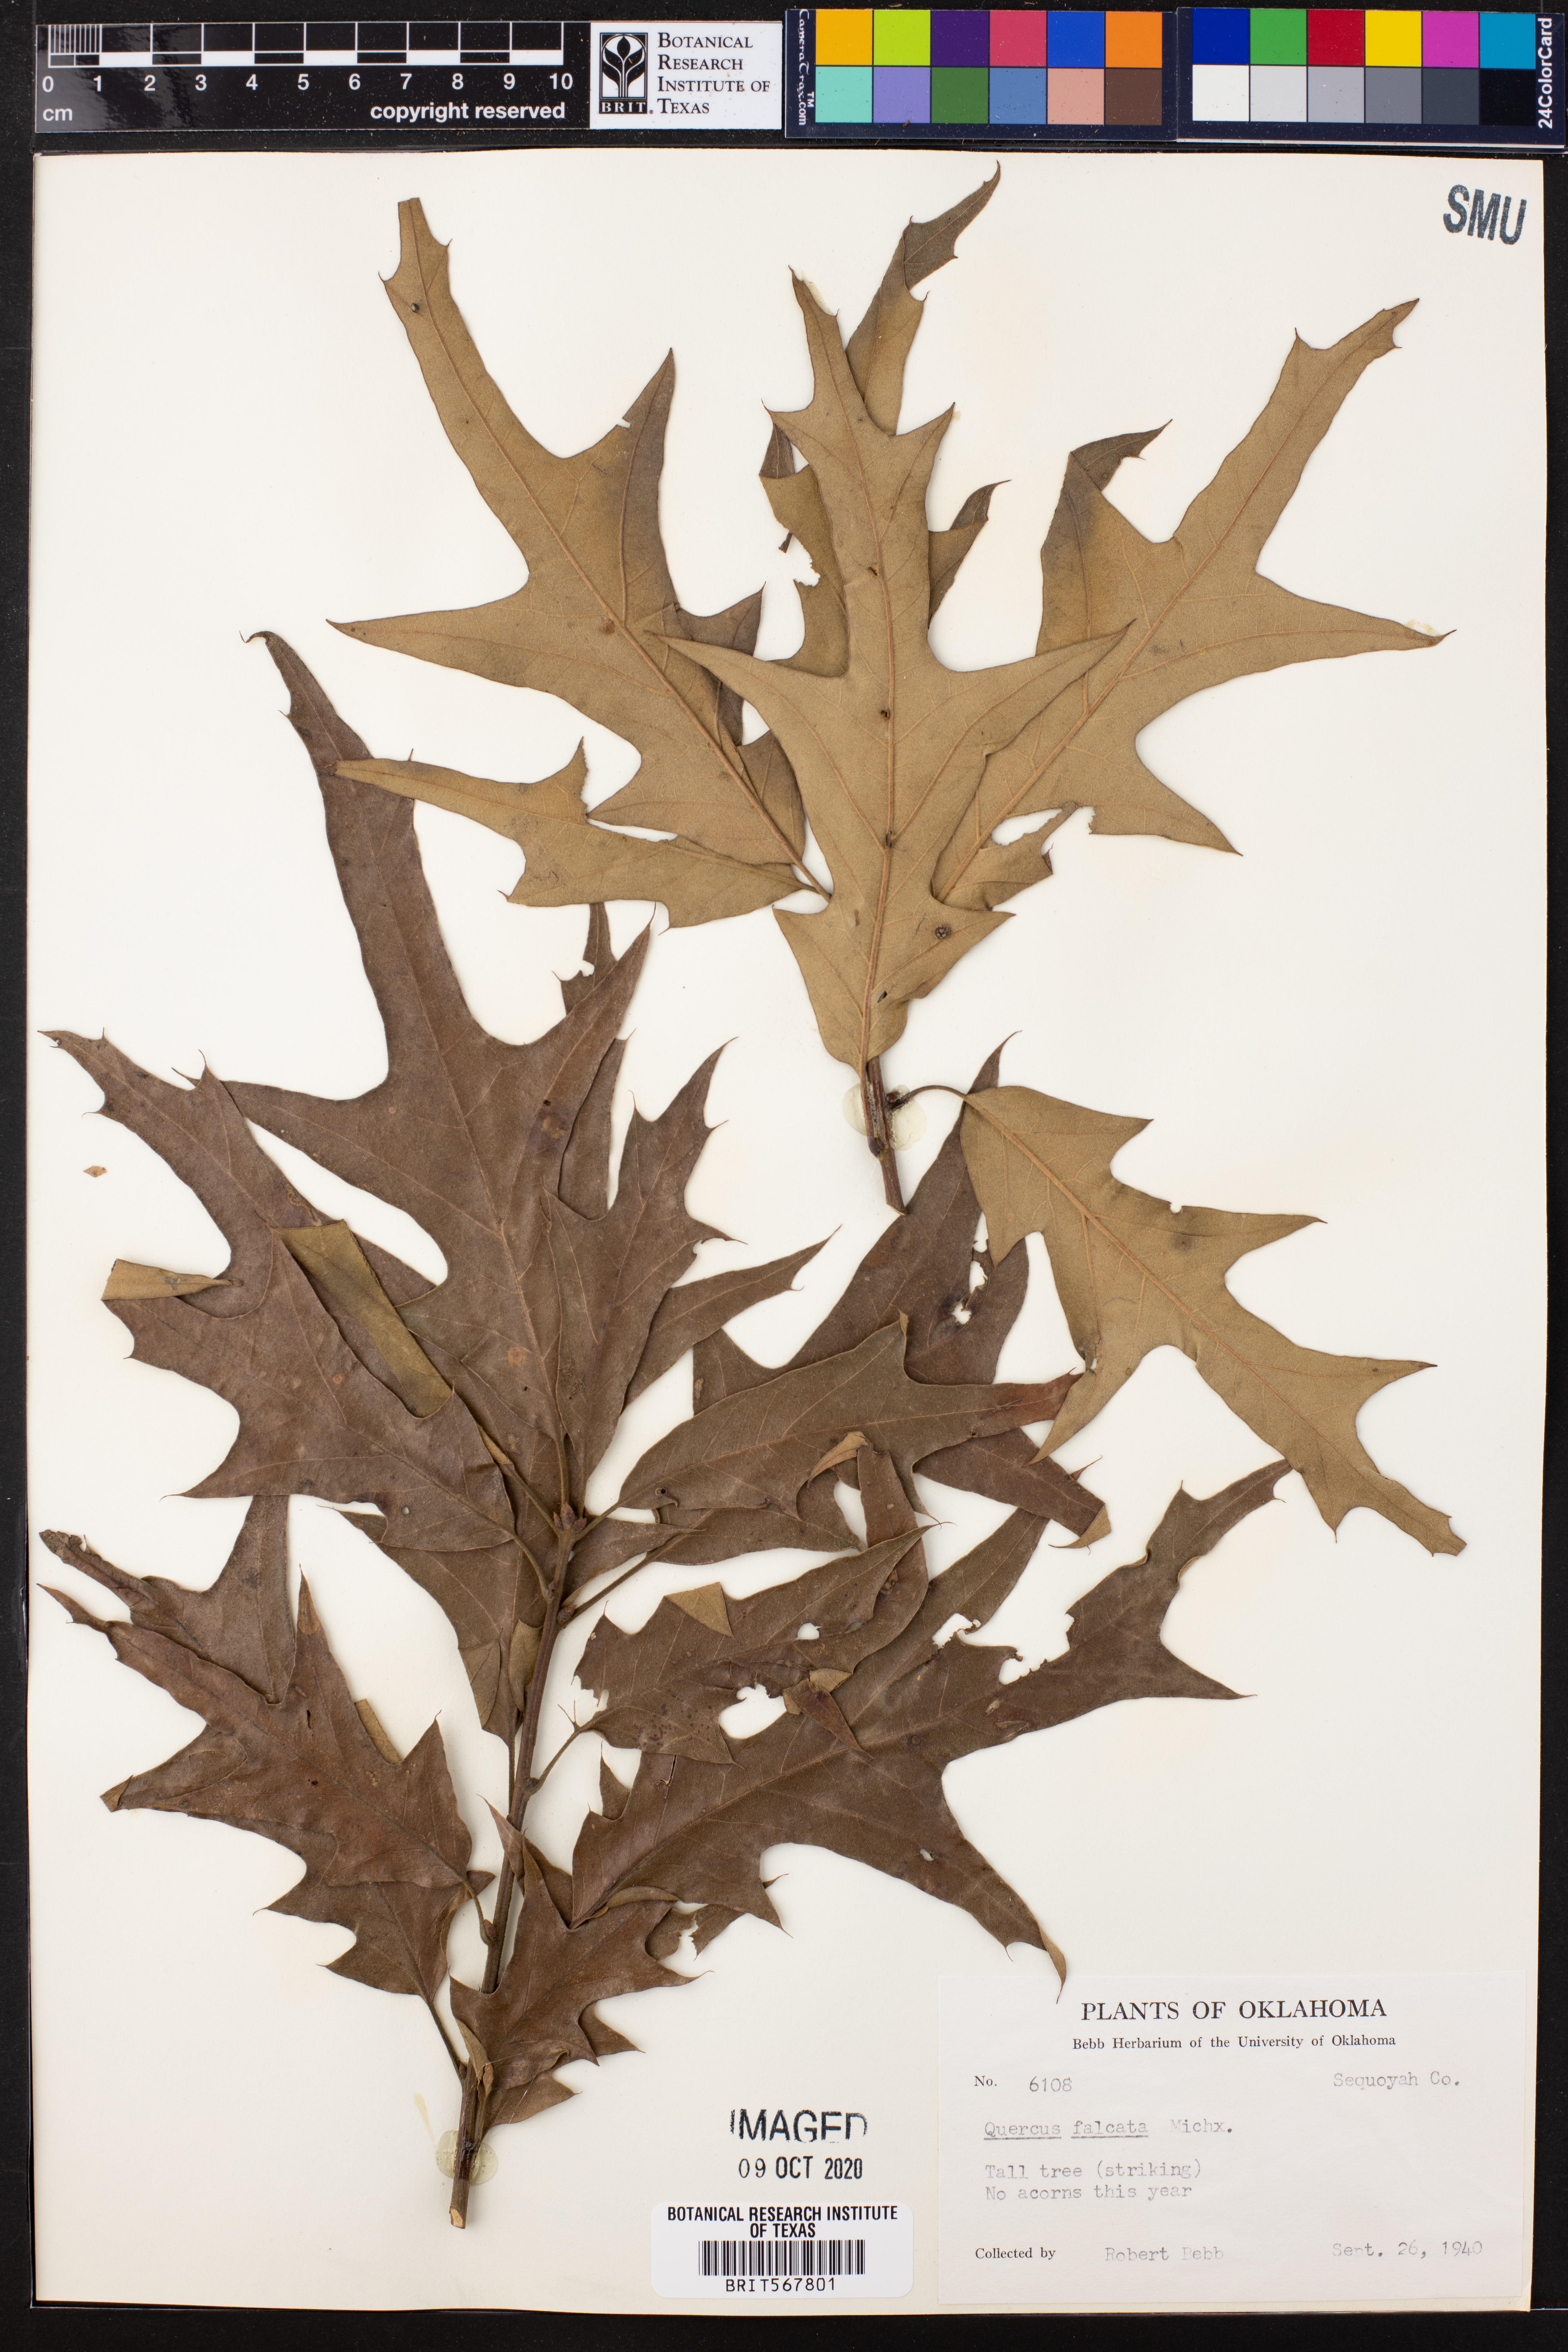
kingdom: Plantae
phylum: Tracheophyta
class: Magnoliopsida
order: Fagales
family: Fagaceae
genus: Quercus
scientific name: Quercus falcata
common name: Southern red oak
